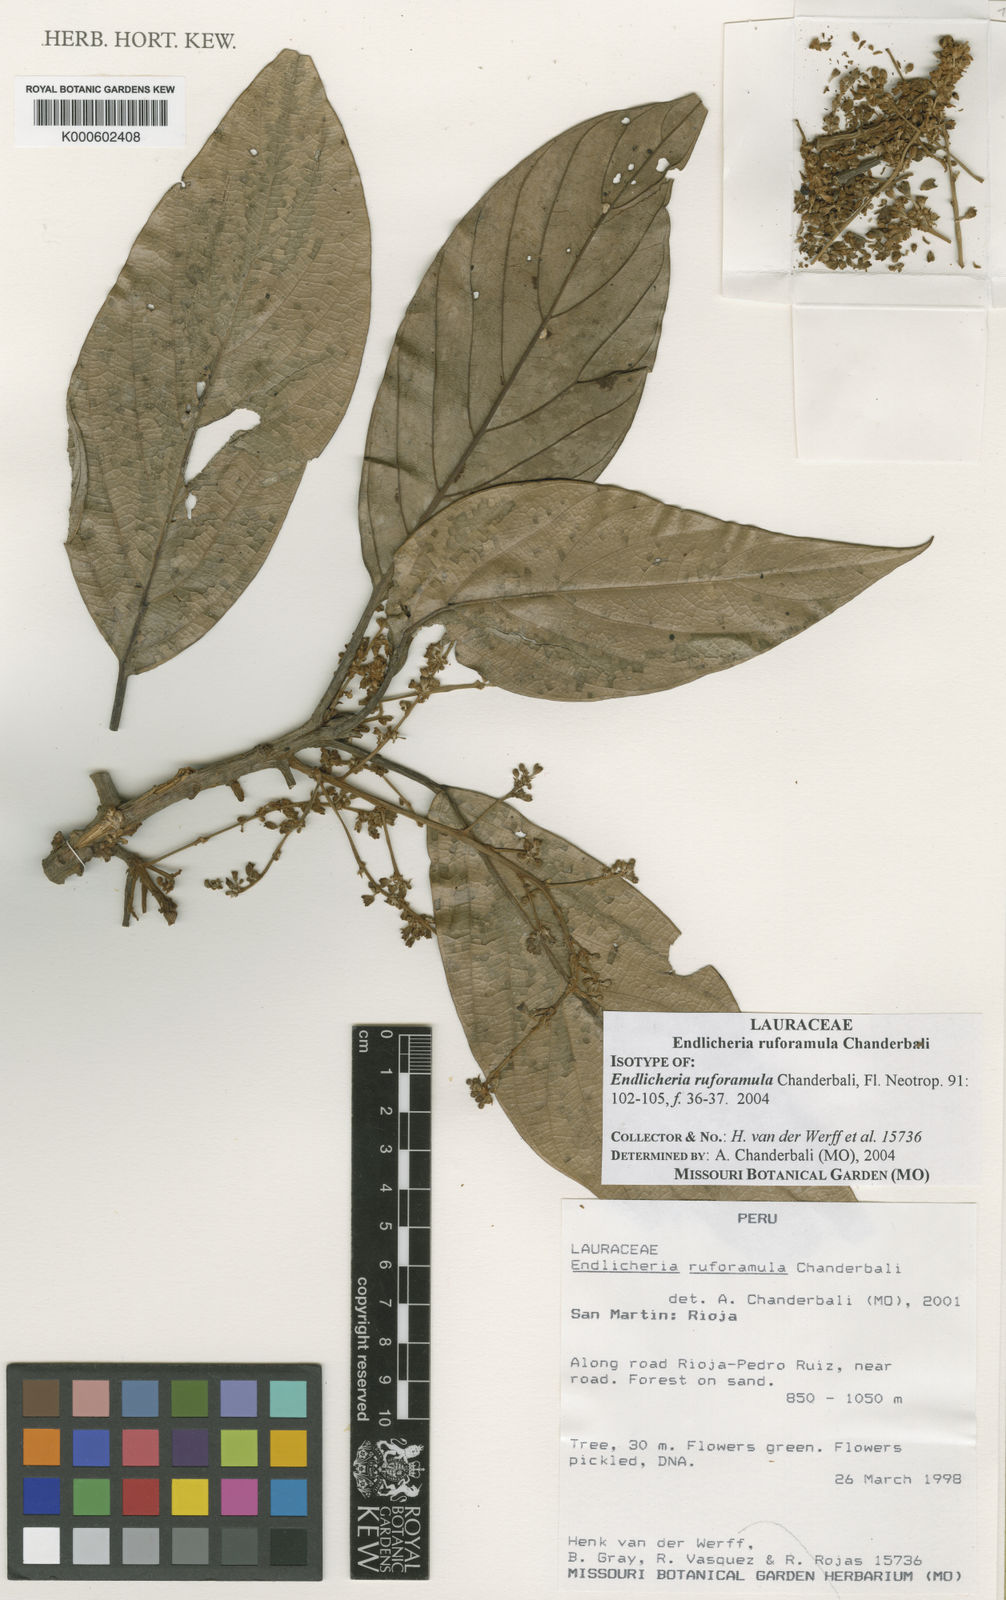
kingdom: Plantae
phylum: Tracheophyta
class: Magnoliopsida
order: Laurales
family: Lauraceae
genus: Endlicheria
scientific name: Endlicheria ruforamula
